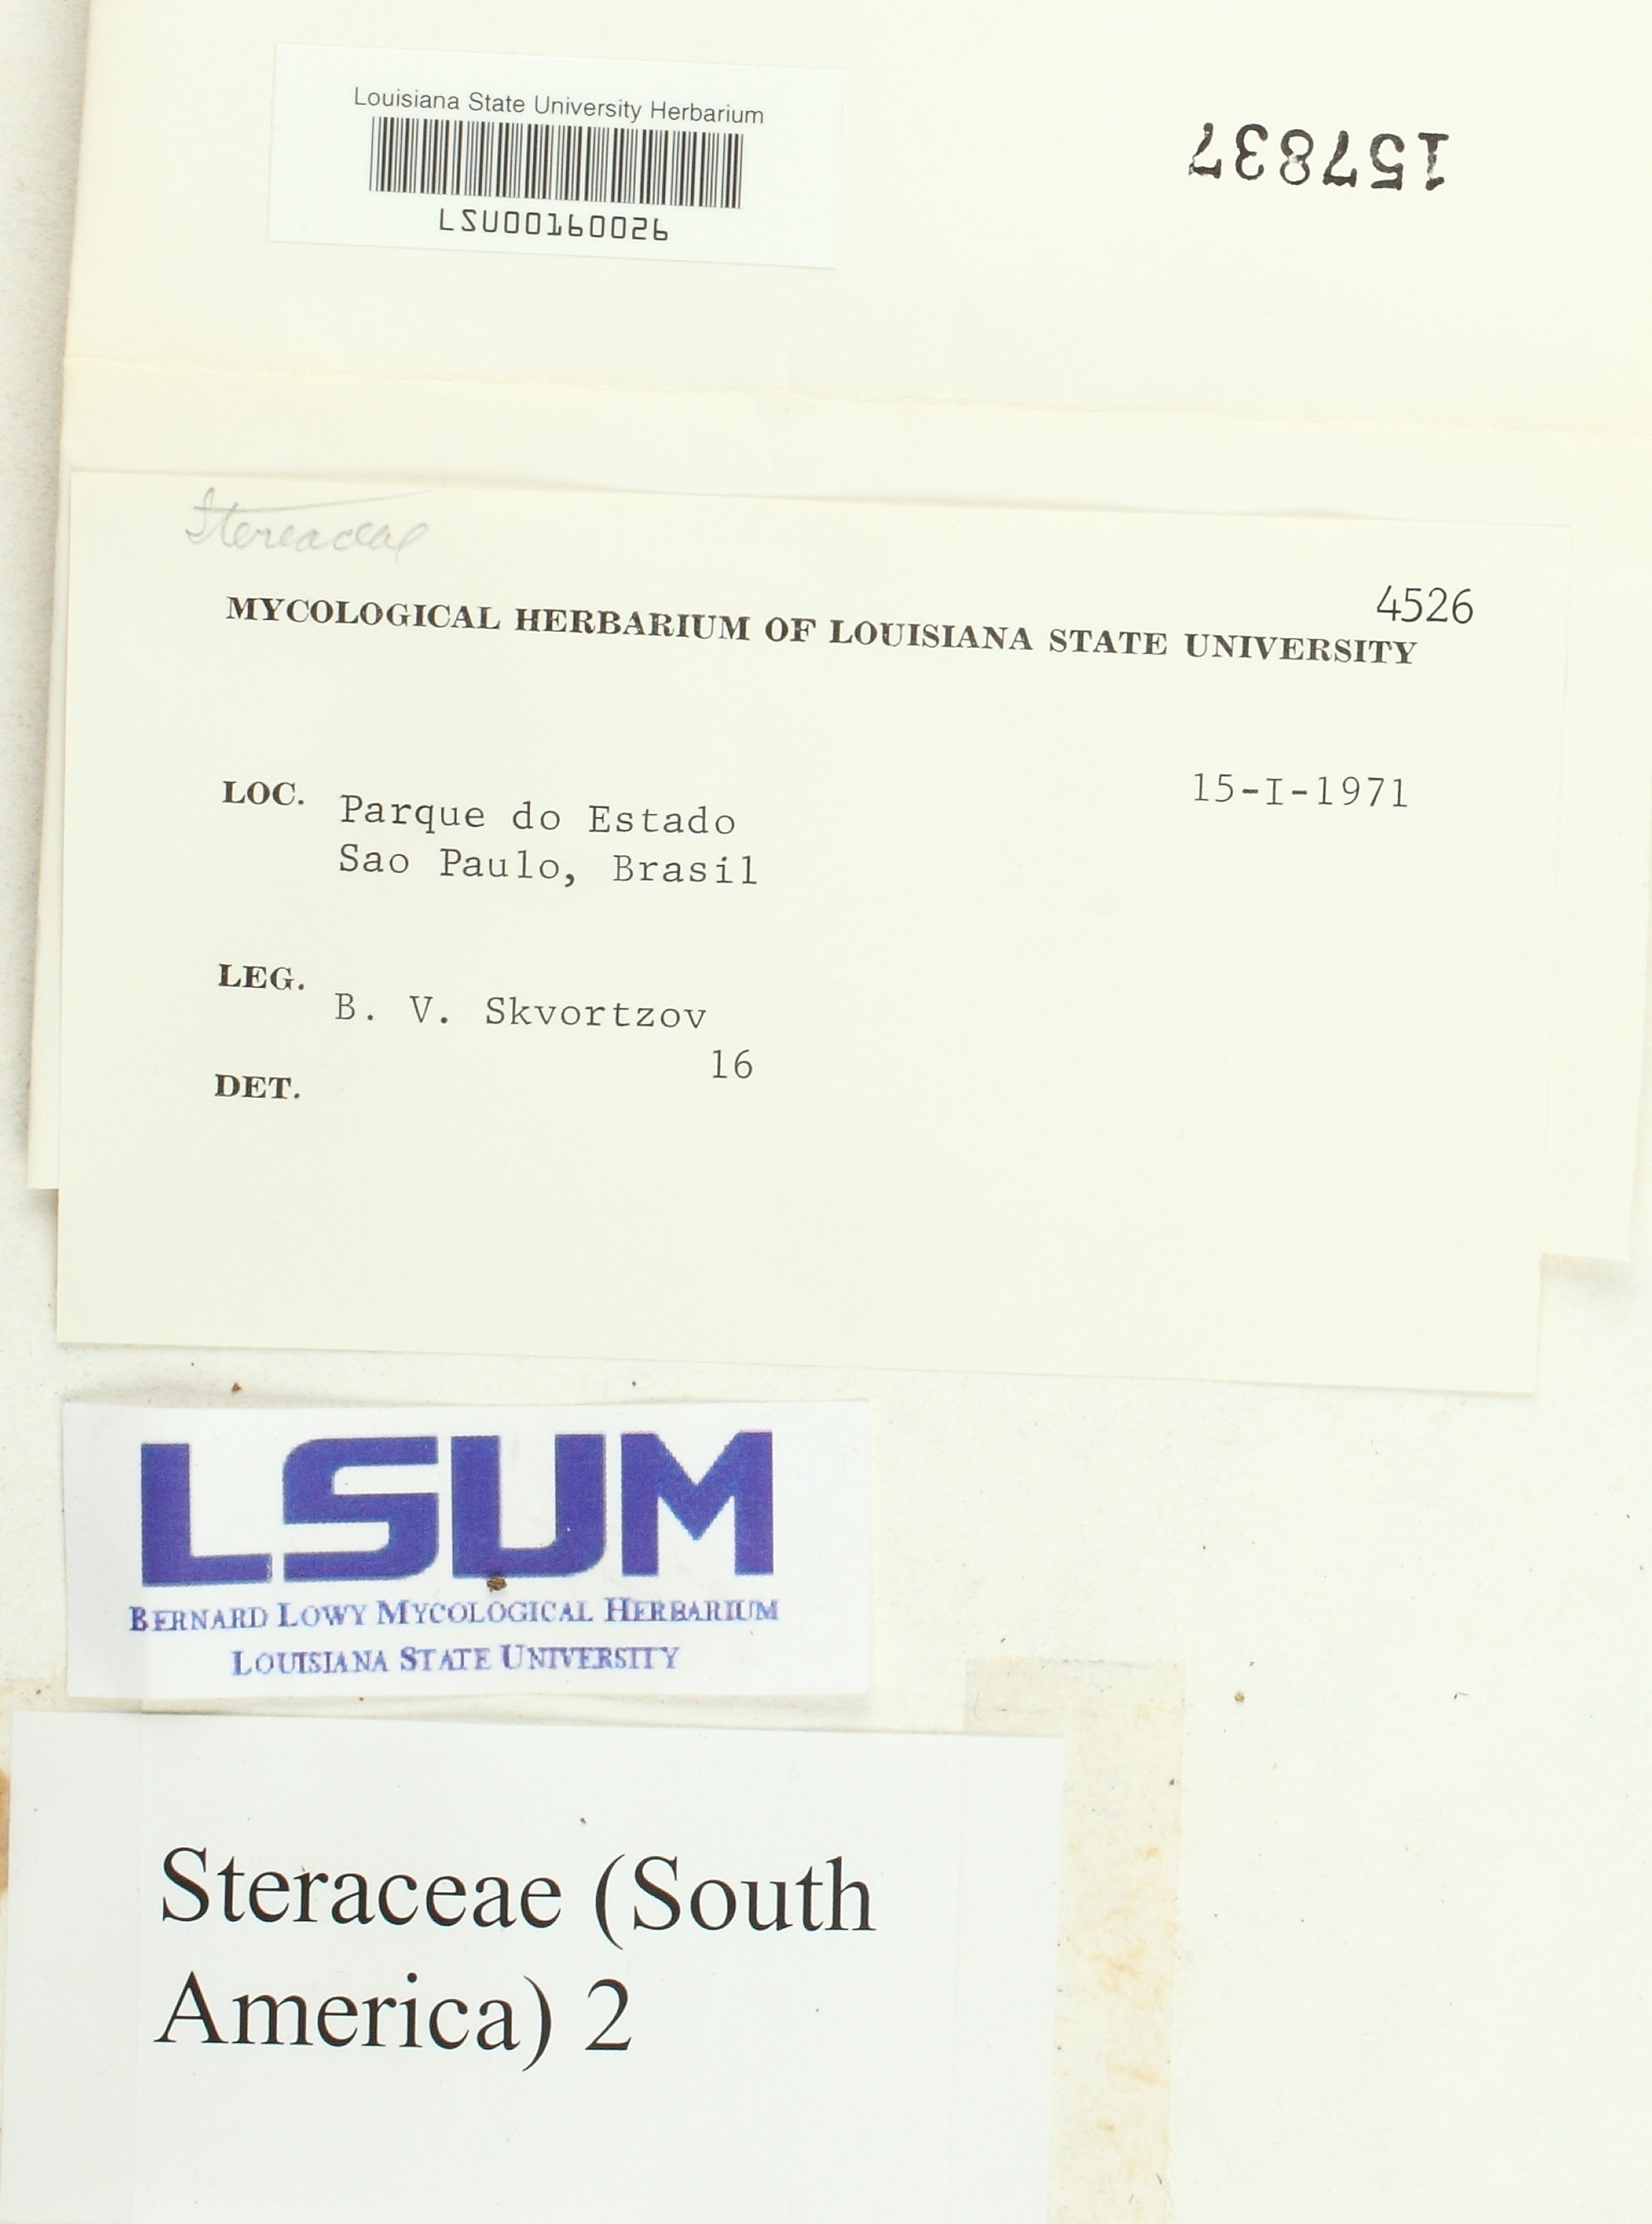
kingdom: Fungi
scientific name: Fungi
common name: Fungi
